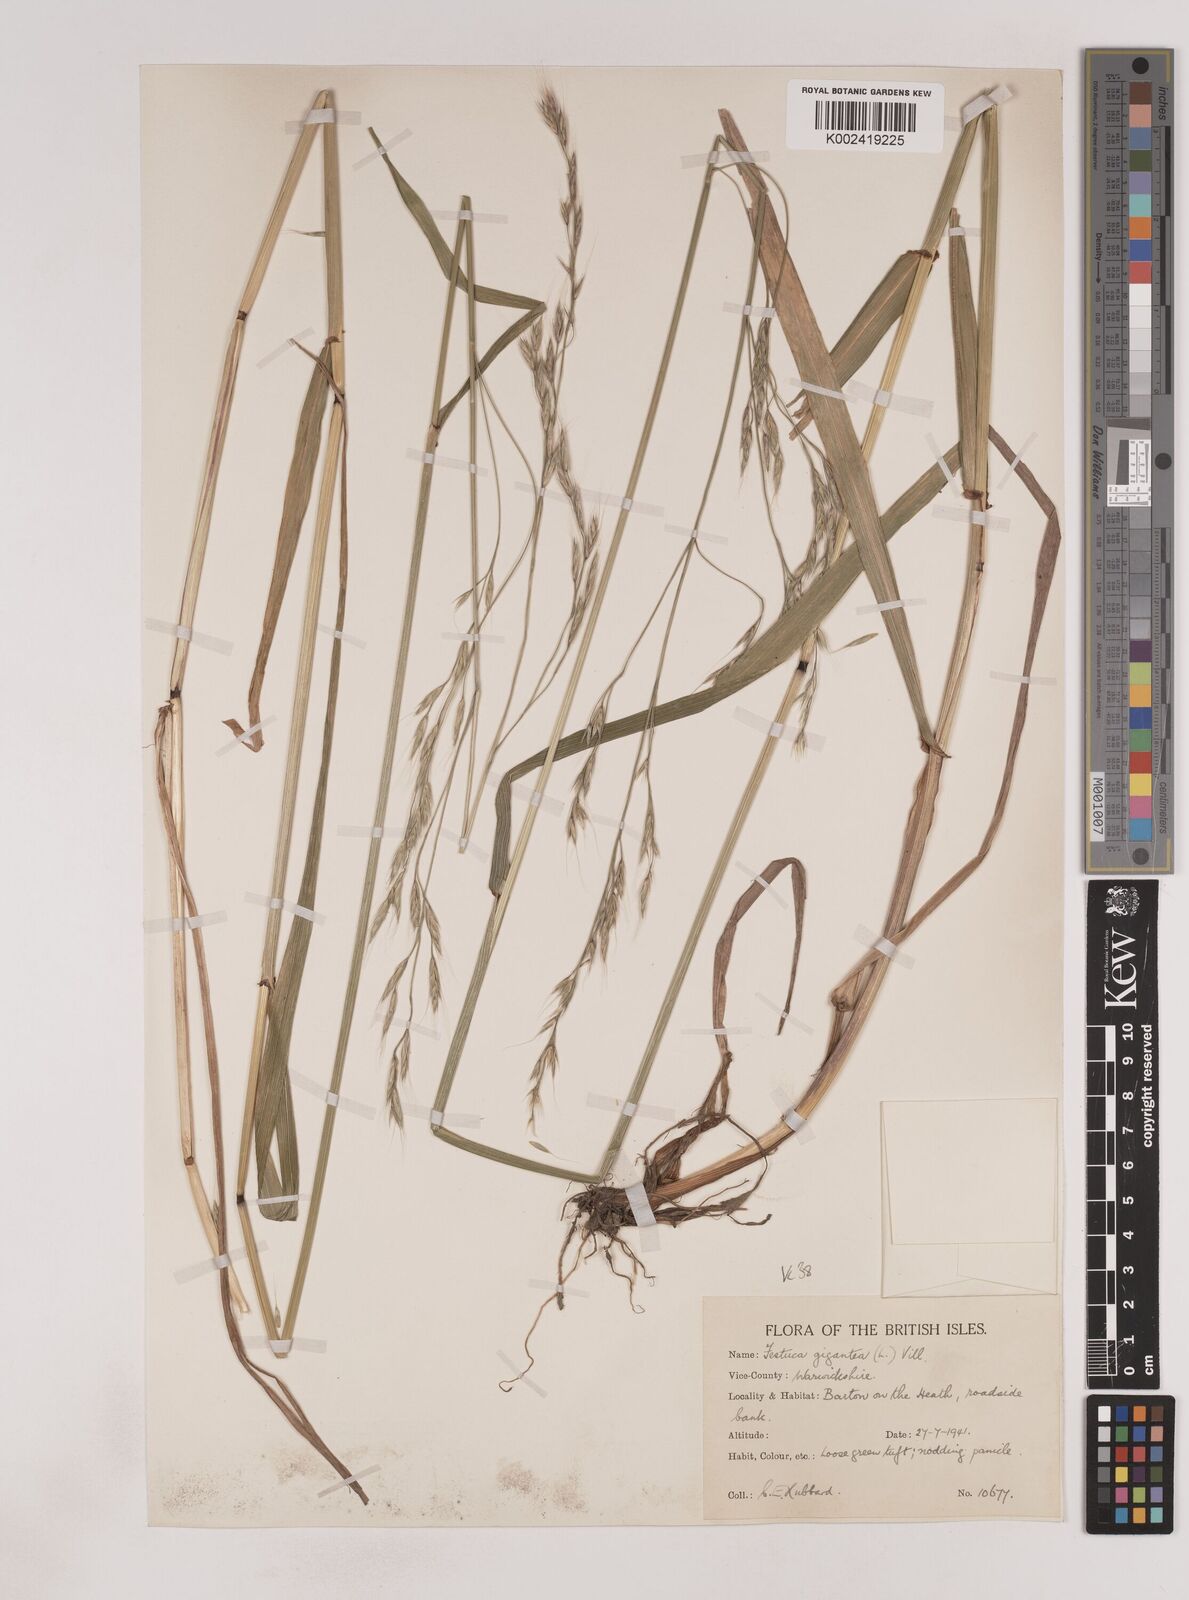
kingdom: Plantae
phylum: Tracheophyta
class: Liliopsida
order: Poales
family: Poaceae
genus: Lolium
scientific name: Lolium giganteum
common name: Giant fescue
